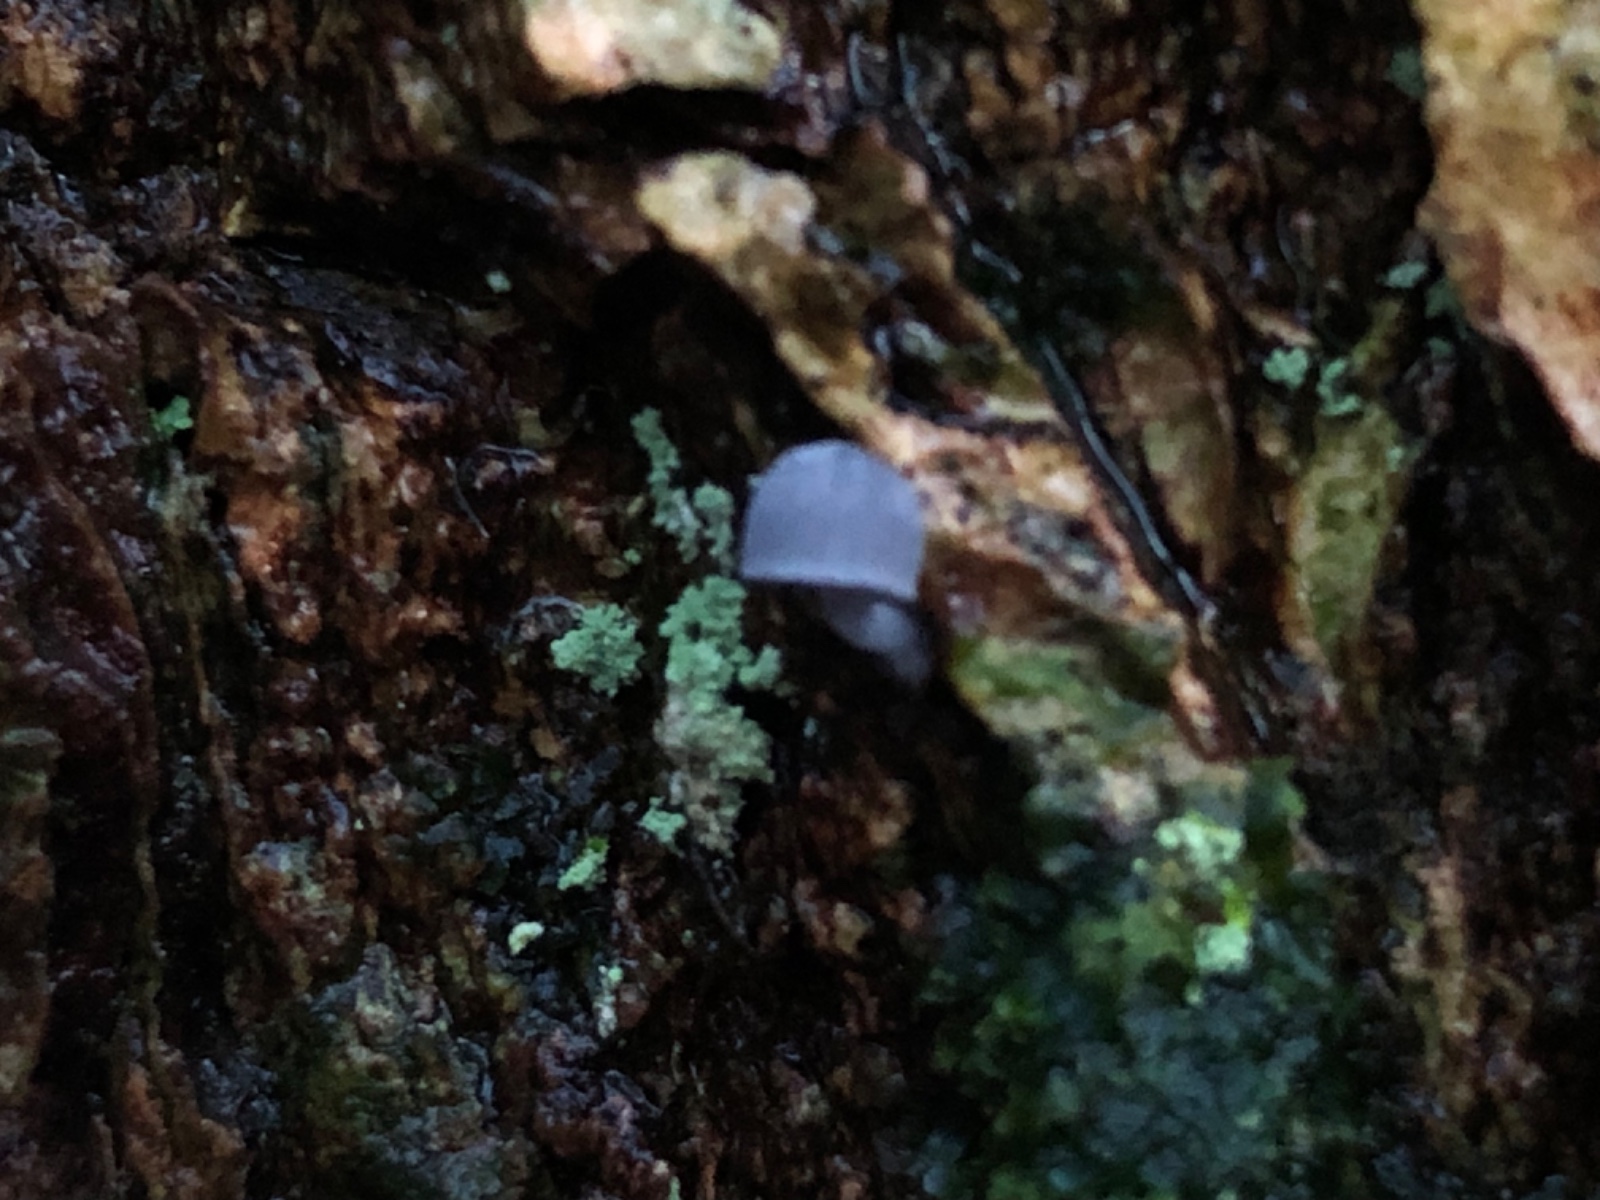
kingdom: Fungi
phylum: Basidiomycota
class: Agaricomycetes
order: Agaricales
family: Mycenaceae
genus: Mycena
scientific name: Mycena pseudocorticola
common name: gråblå bark-huesvamp
